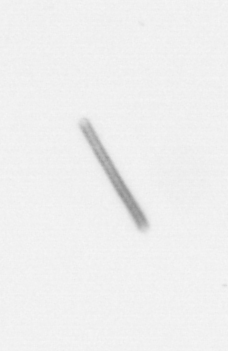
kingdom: Chromista
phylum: Ochrophyta
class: Bacillariophyceae
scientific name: Bacillariophyceae
